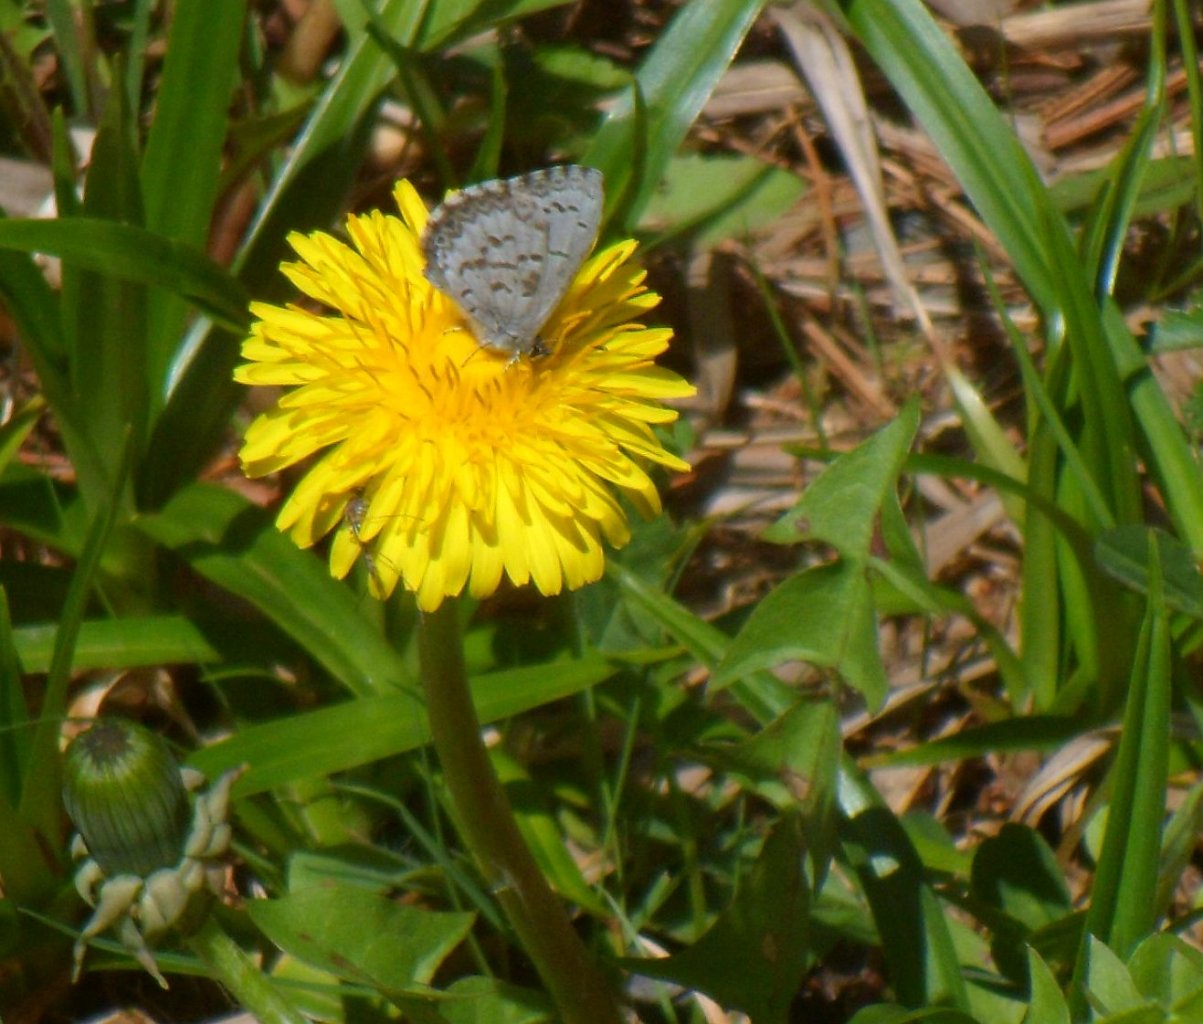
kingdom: Animalia
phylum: Arthropoda
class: Insecta
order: Lepidoptera
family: Lycaenidae
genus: Celastrina
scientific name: Celastrina lucia
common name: Northern Spring Azure
